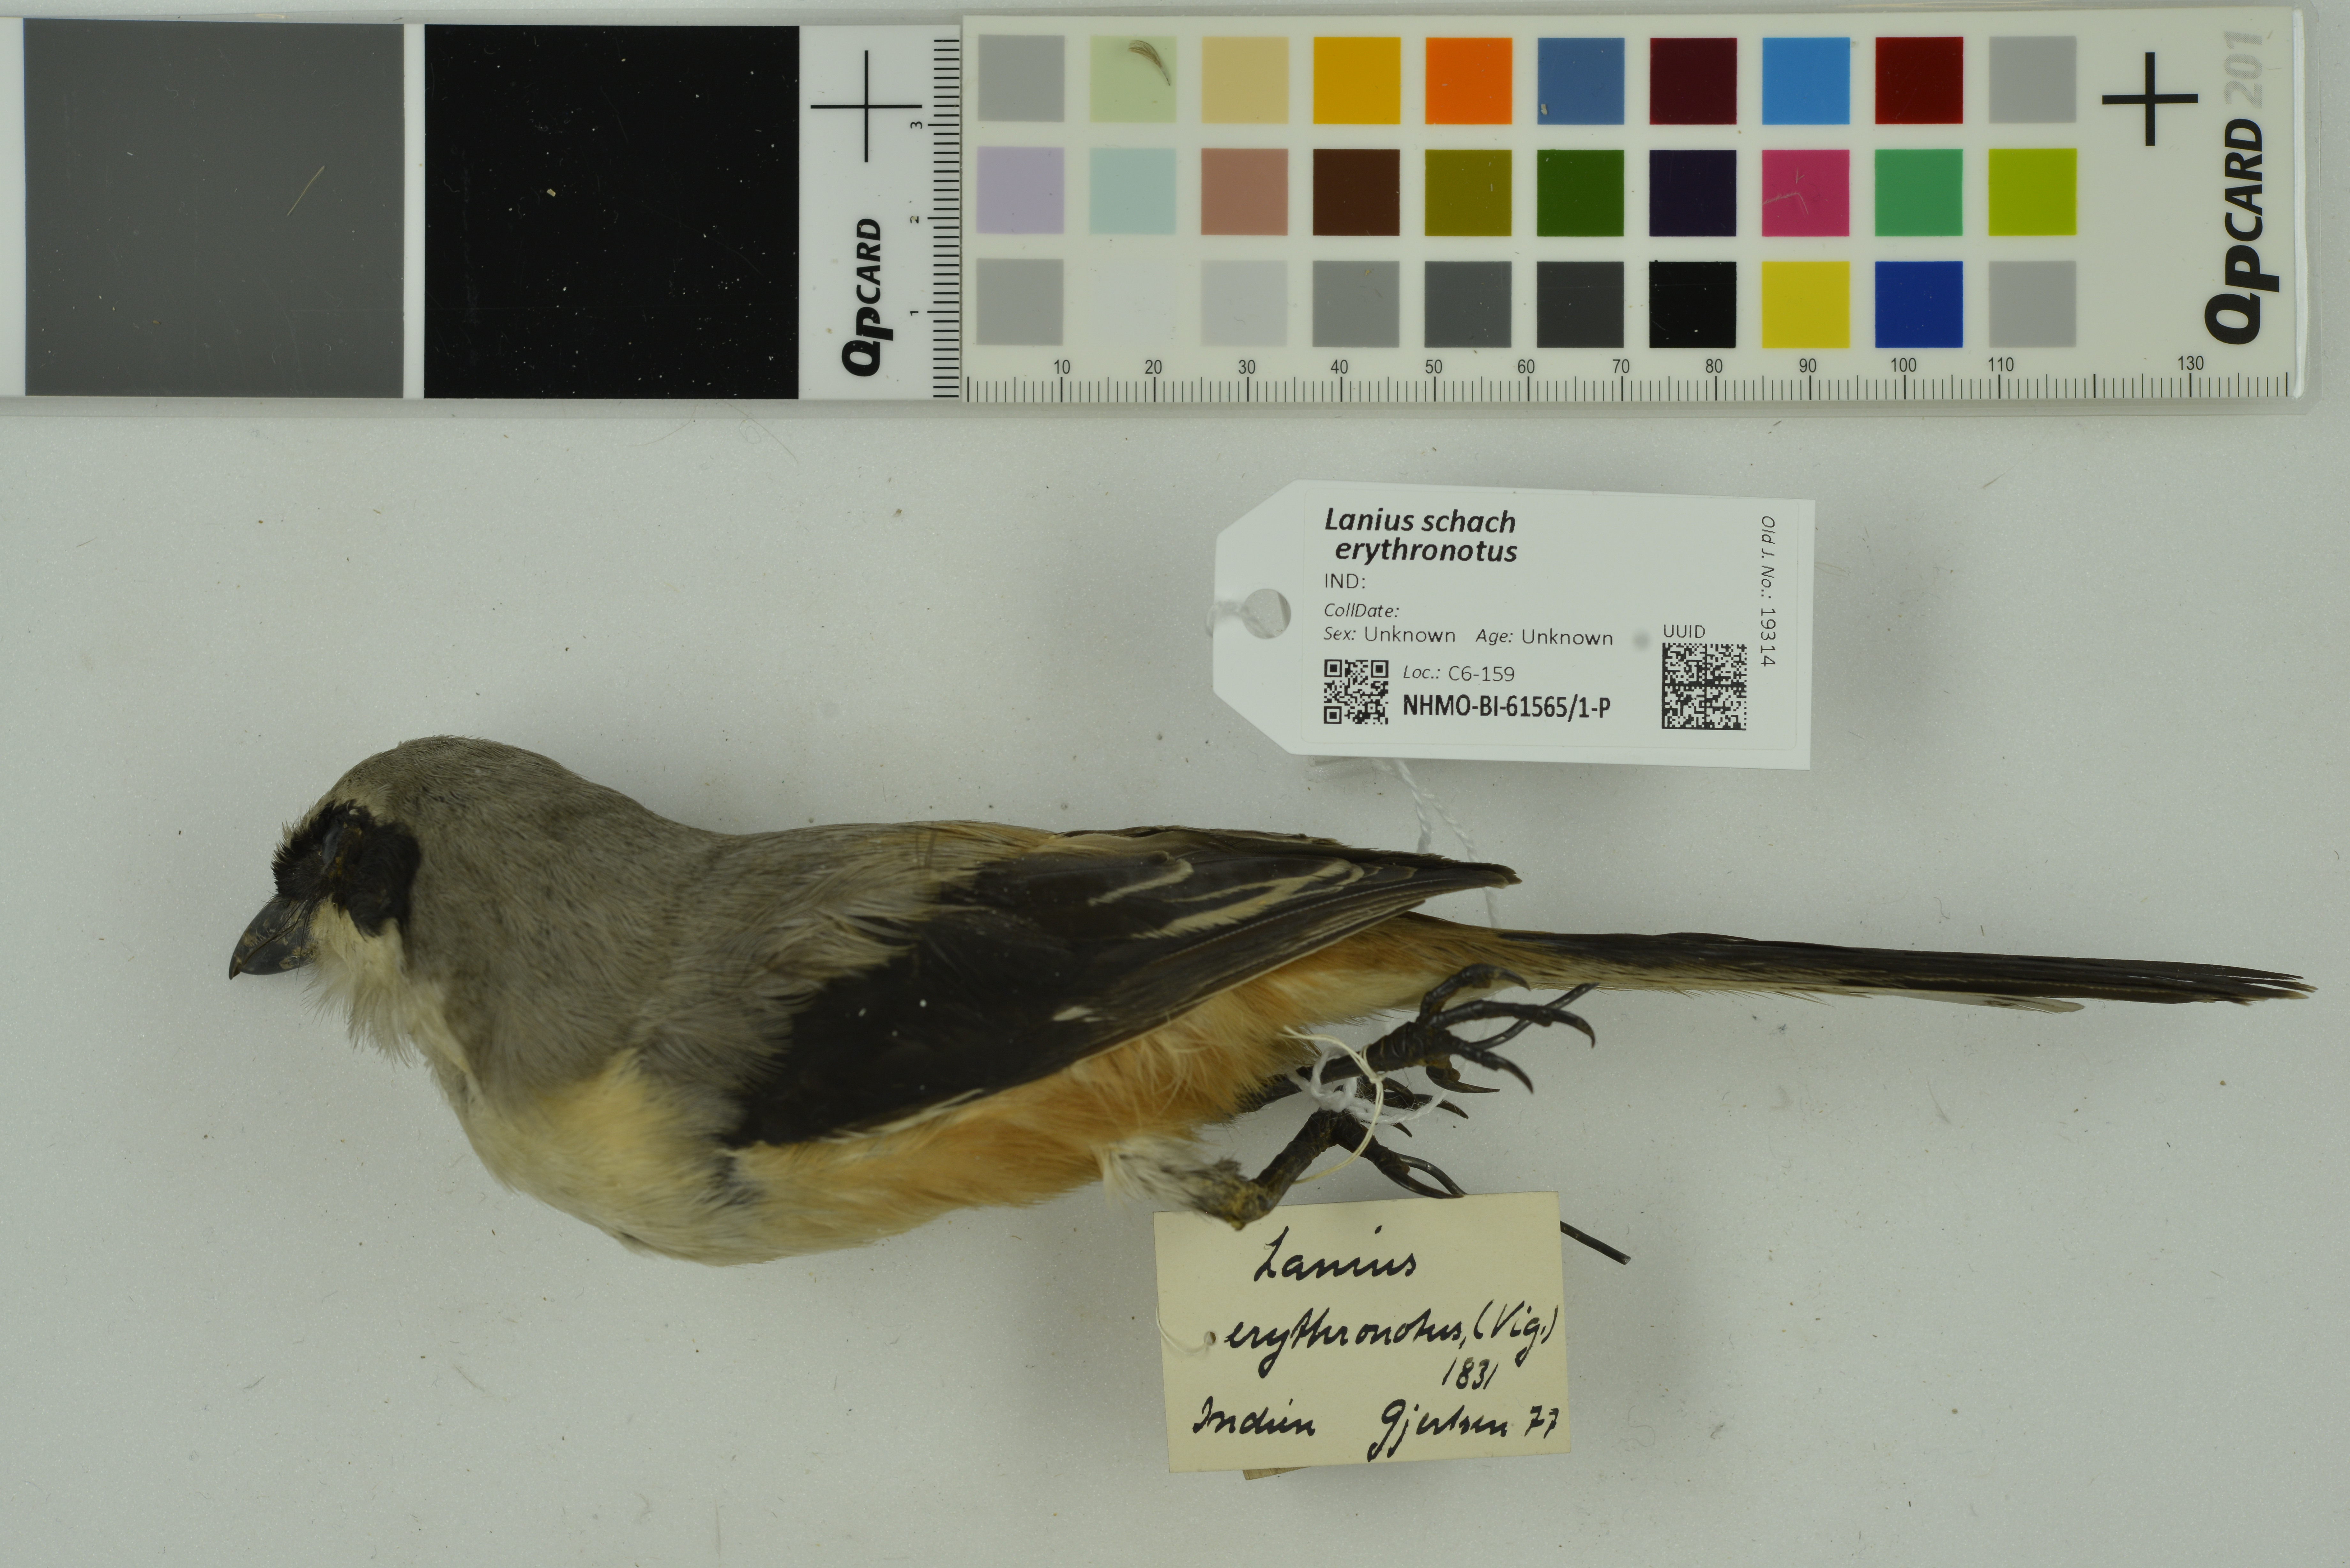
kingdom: Animalia
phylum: Chordata
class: Aves
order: Passeriformes
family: Laniidae
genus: Lanius
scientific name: Lanius schach
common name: Long-tailed shrike
